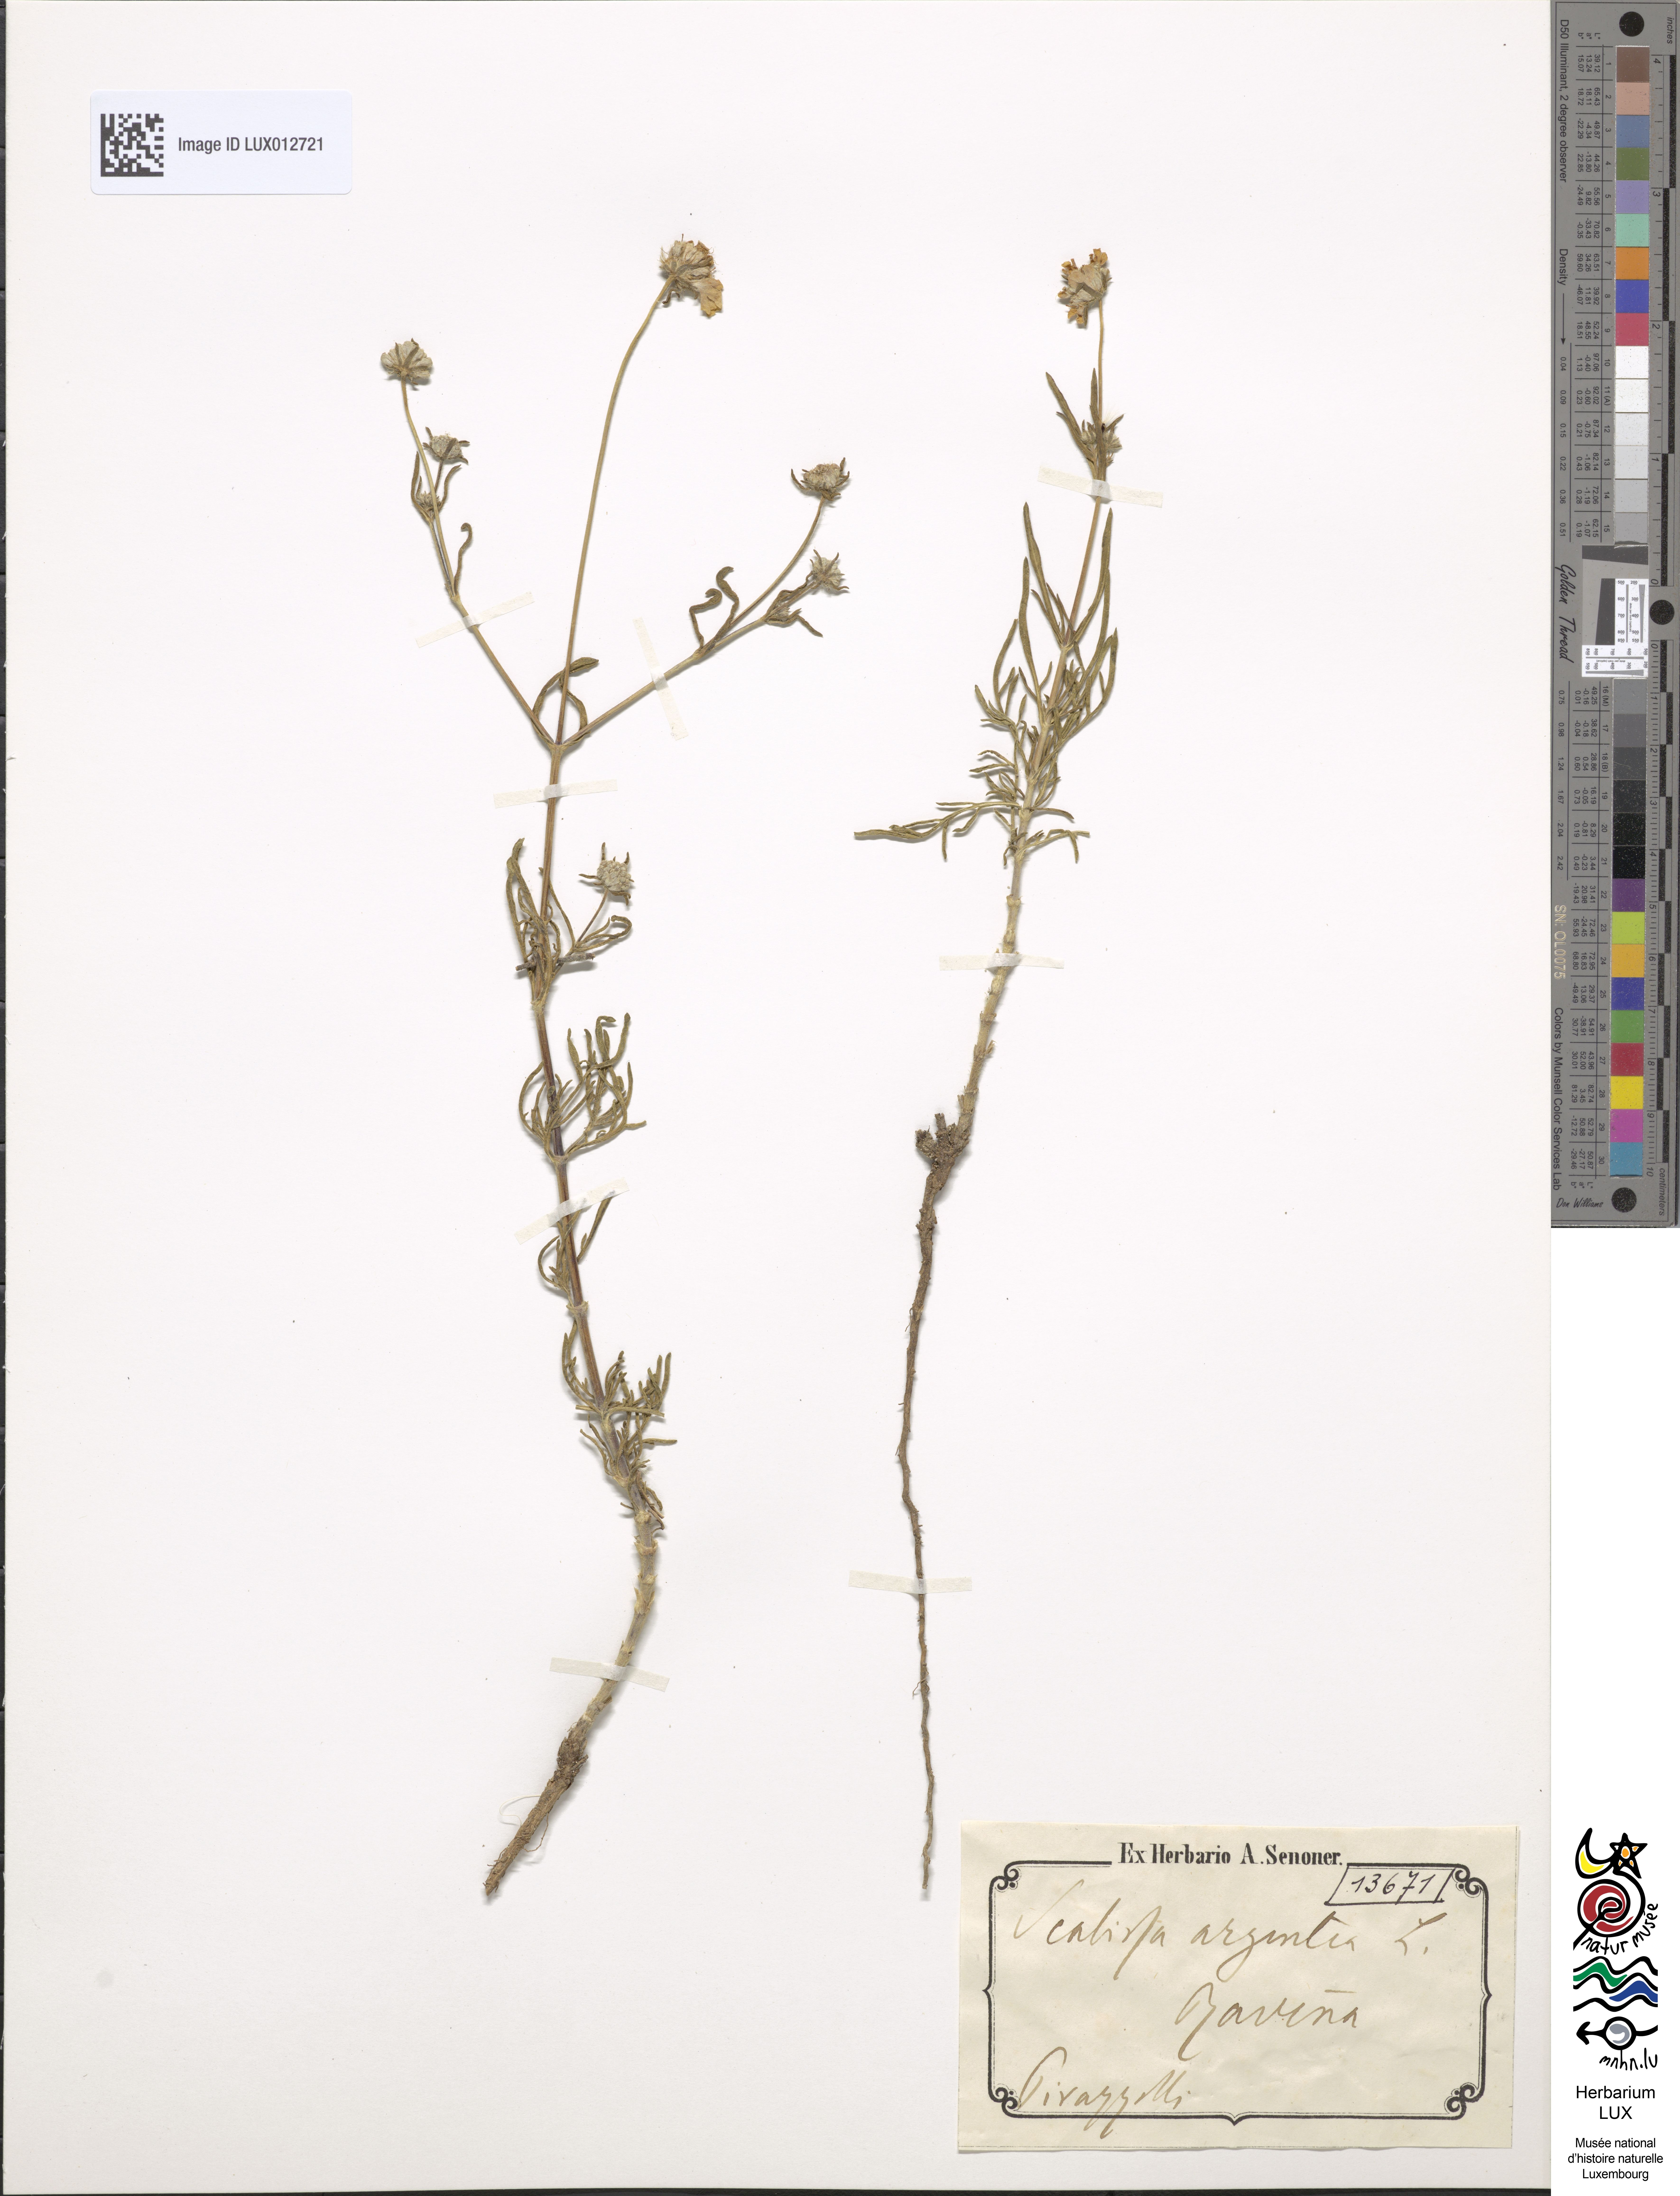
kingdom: Plantae
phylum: Tracheophyta
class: Magnoliopsida
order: Dipsacales
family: Caprifoliaceae
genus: Lomelosia
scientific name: Lomelosia argentea
